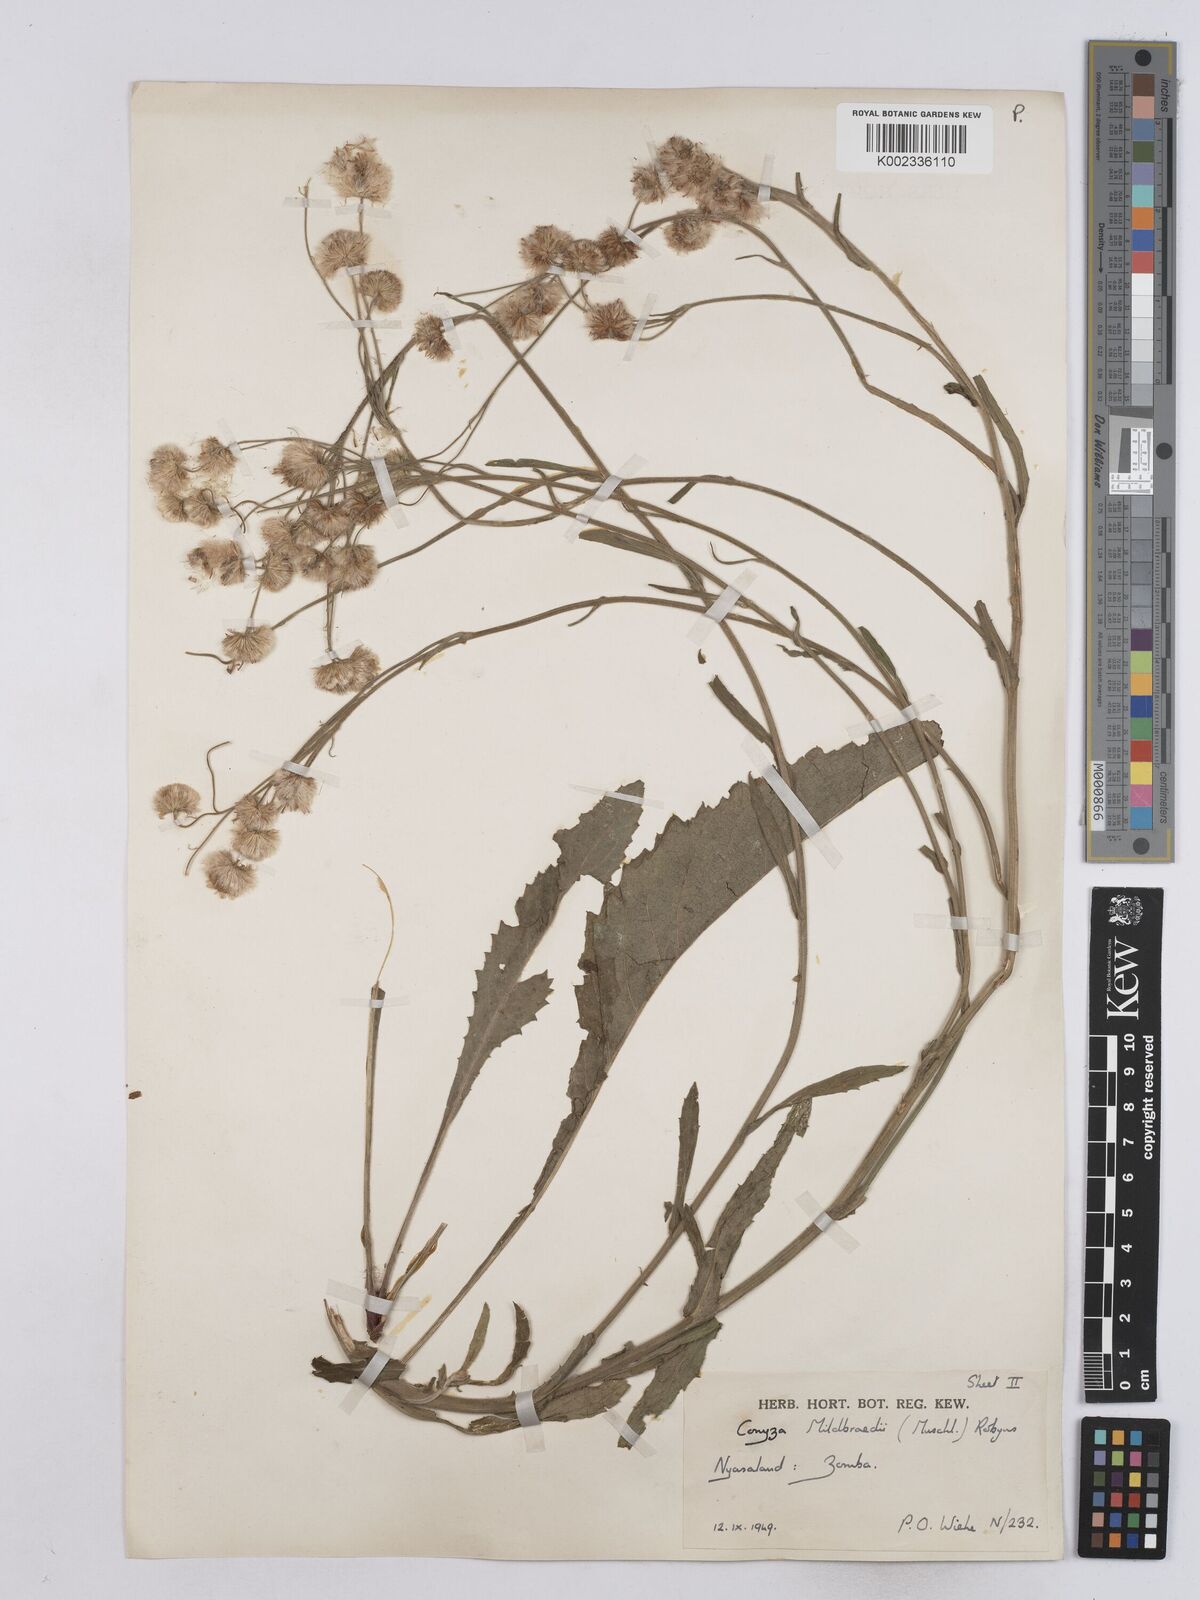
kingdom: Plantae
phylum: Tracheophyta
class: Magnoliopsida
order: Asterales
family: Asteraceae
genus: Conyza
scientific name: Conyza limosa
